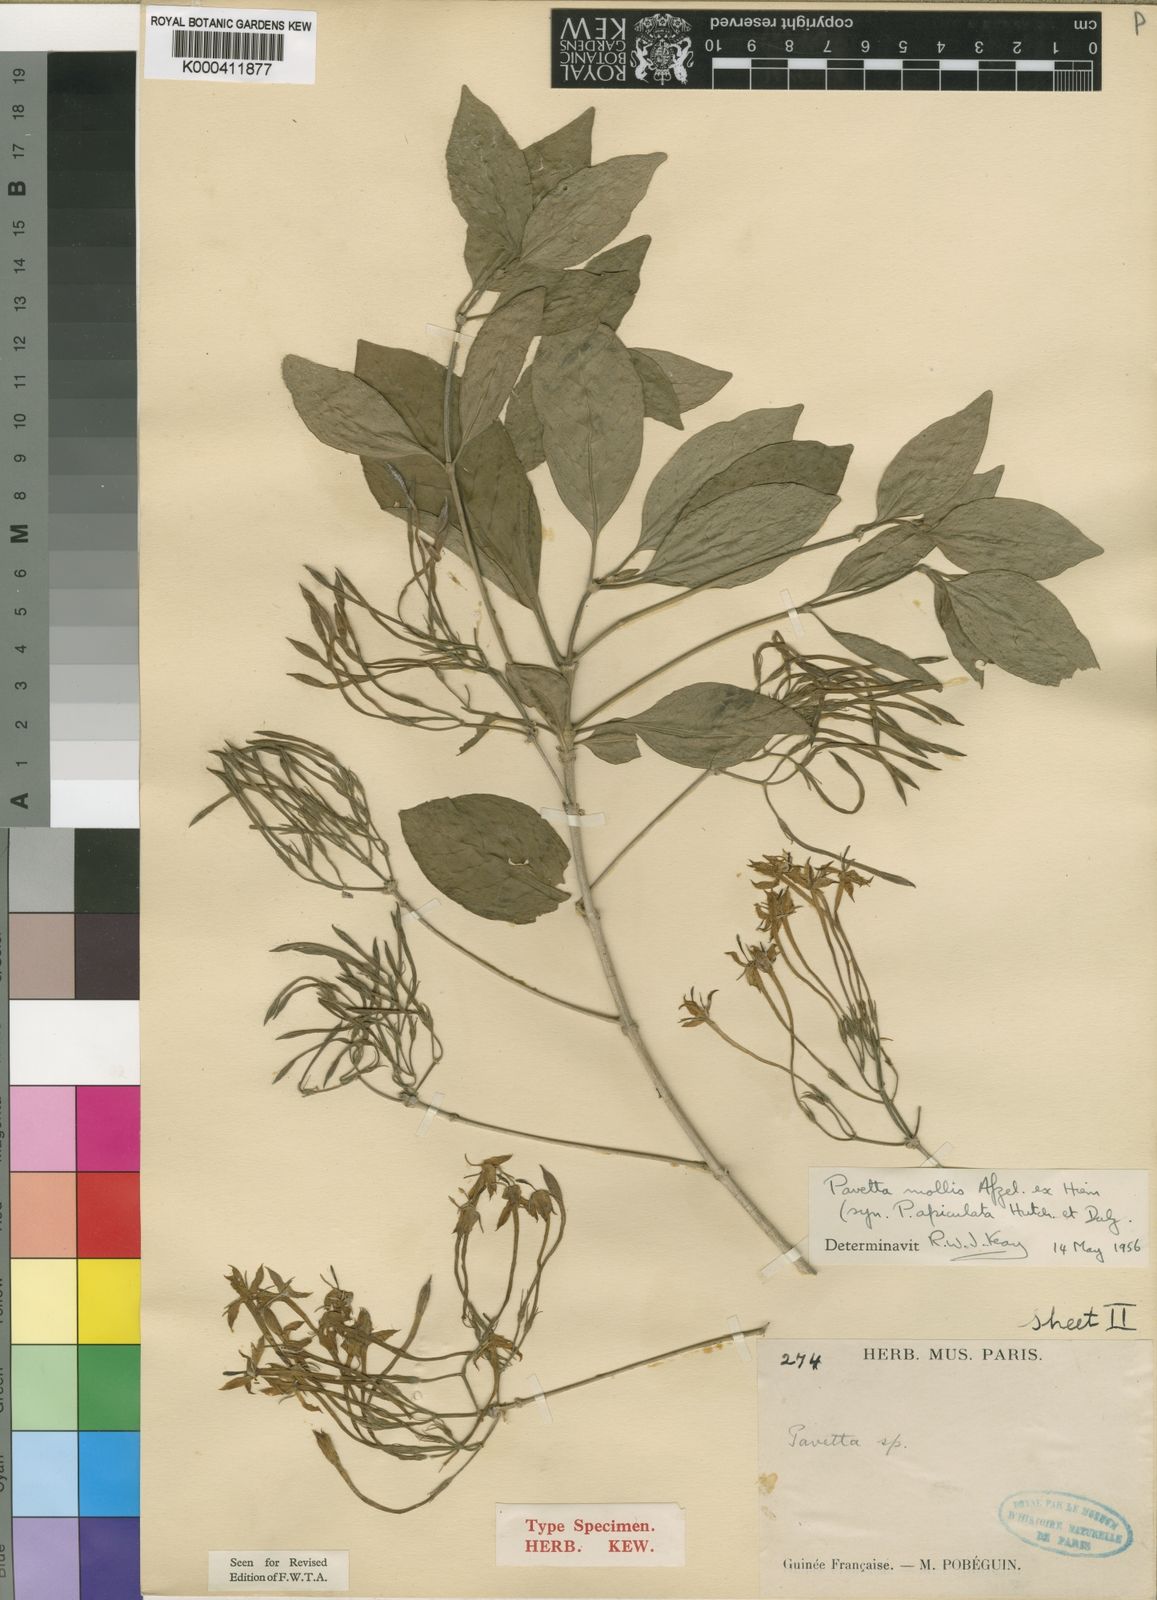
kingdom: Plantae
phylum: Tracheophyta
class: Magnoliopsida
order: Gentianales
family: Rubiaceae
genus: Pavetta
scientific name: Pavetta mollis
